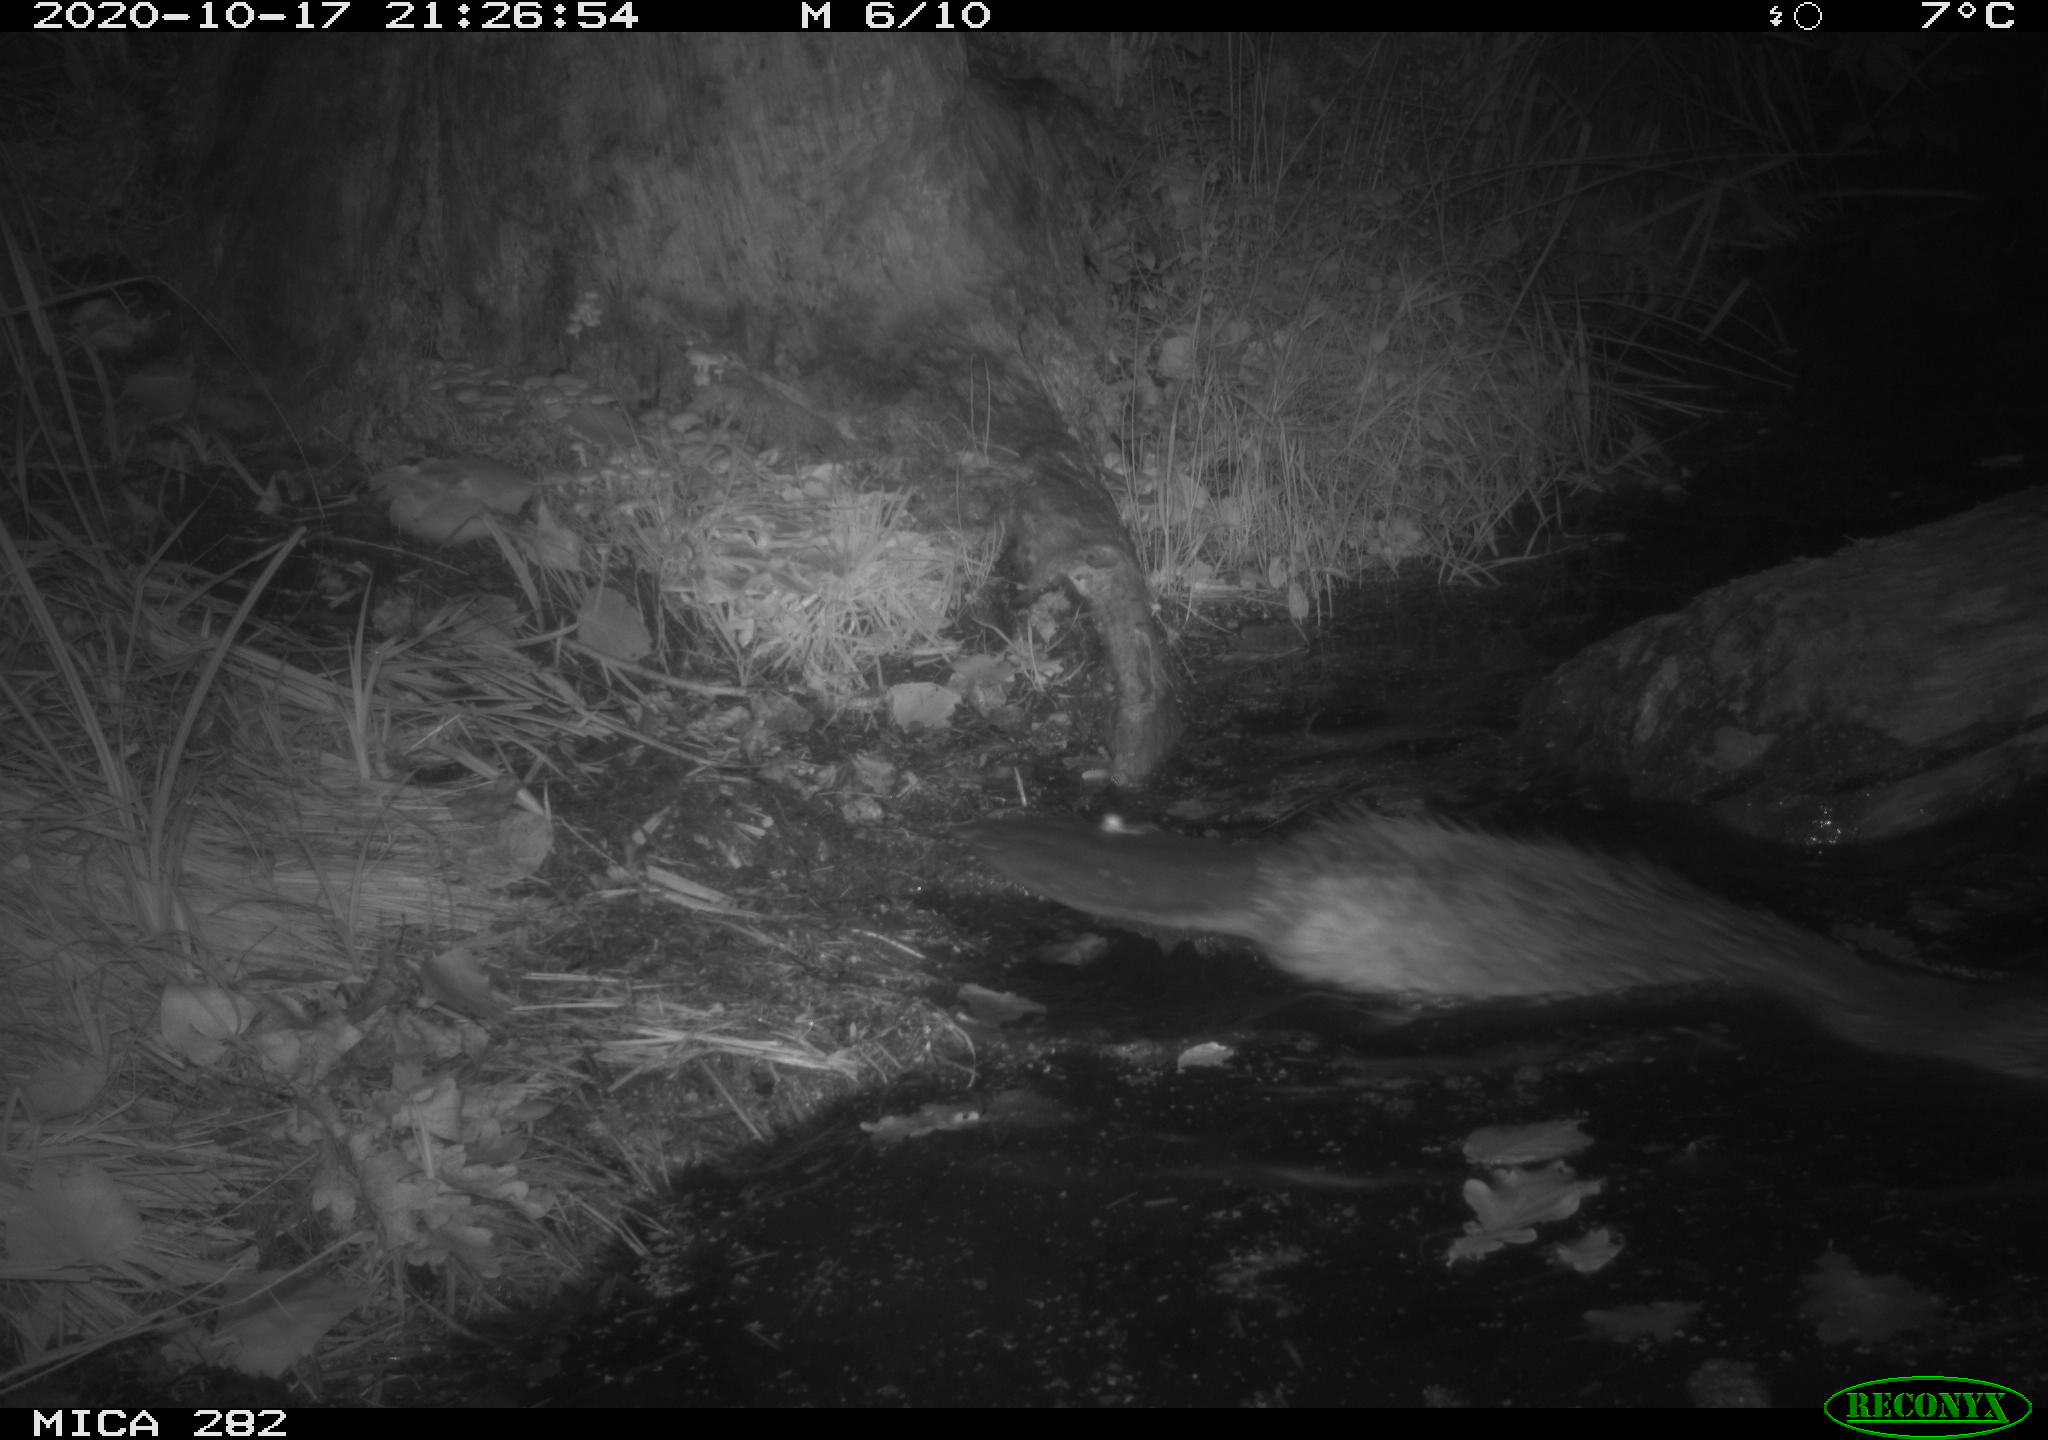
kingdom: Animalia
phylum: Chordata
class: Mammalia
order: Rodentia
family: Castoridae
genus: Castor
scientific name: Castor fiber
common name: Eurasian beaver
